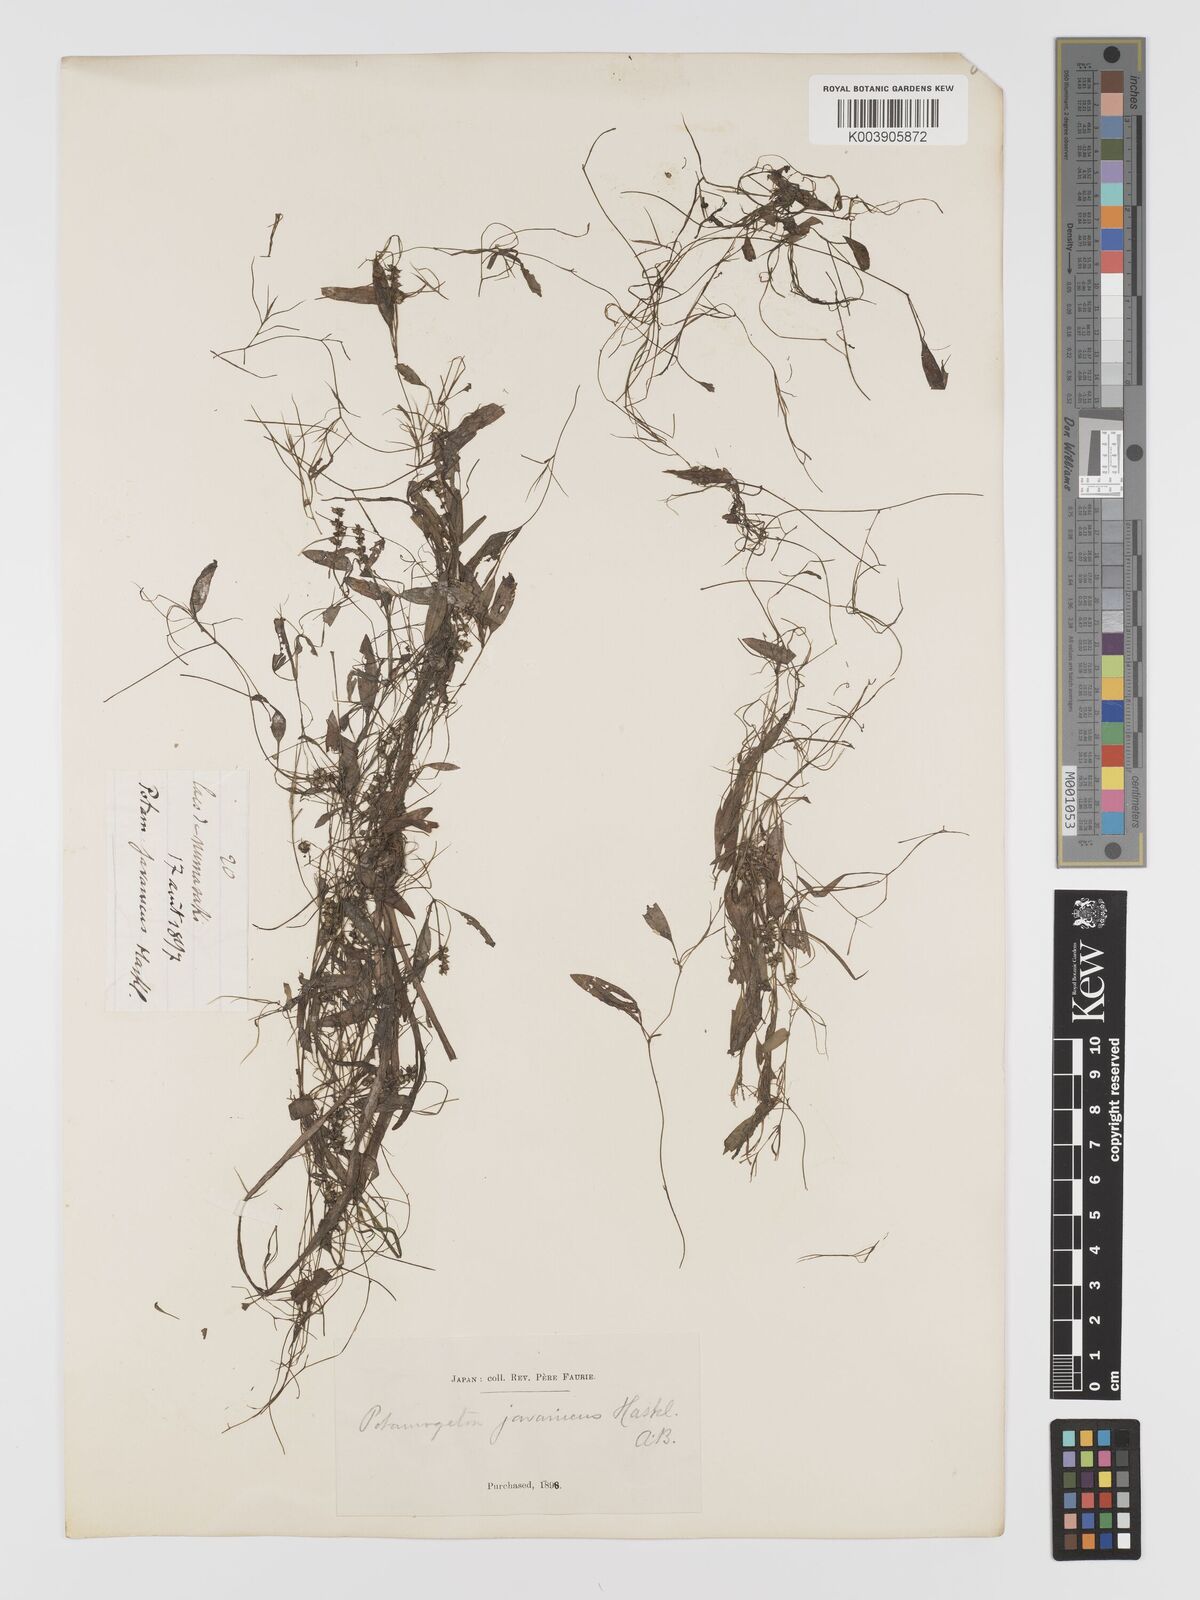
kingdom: Plantae
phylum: Tracheophyta
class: Liliopsida
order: Alismatales
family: Potamogetonaceae
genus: Potamogeton
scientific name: Potamogeton octandrus
